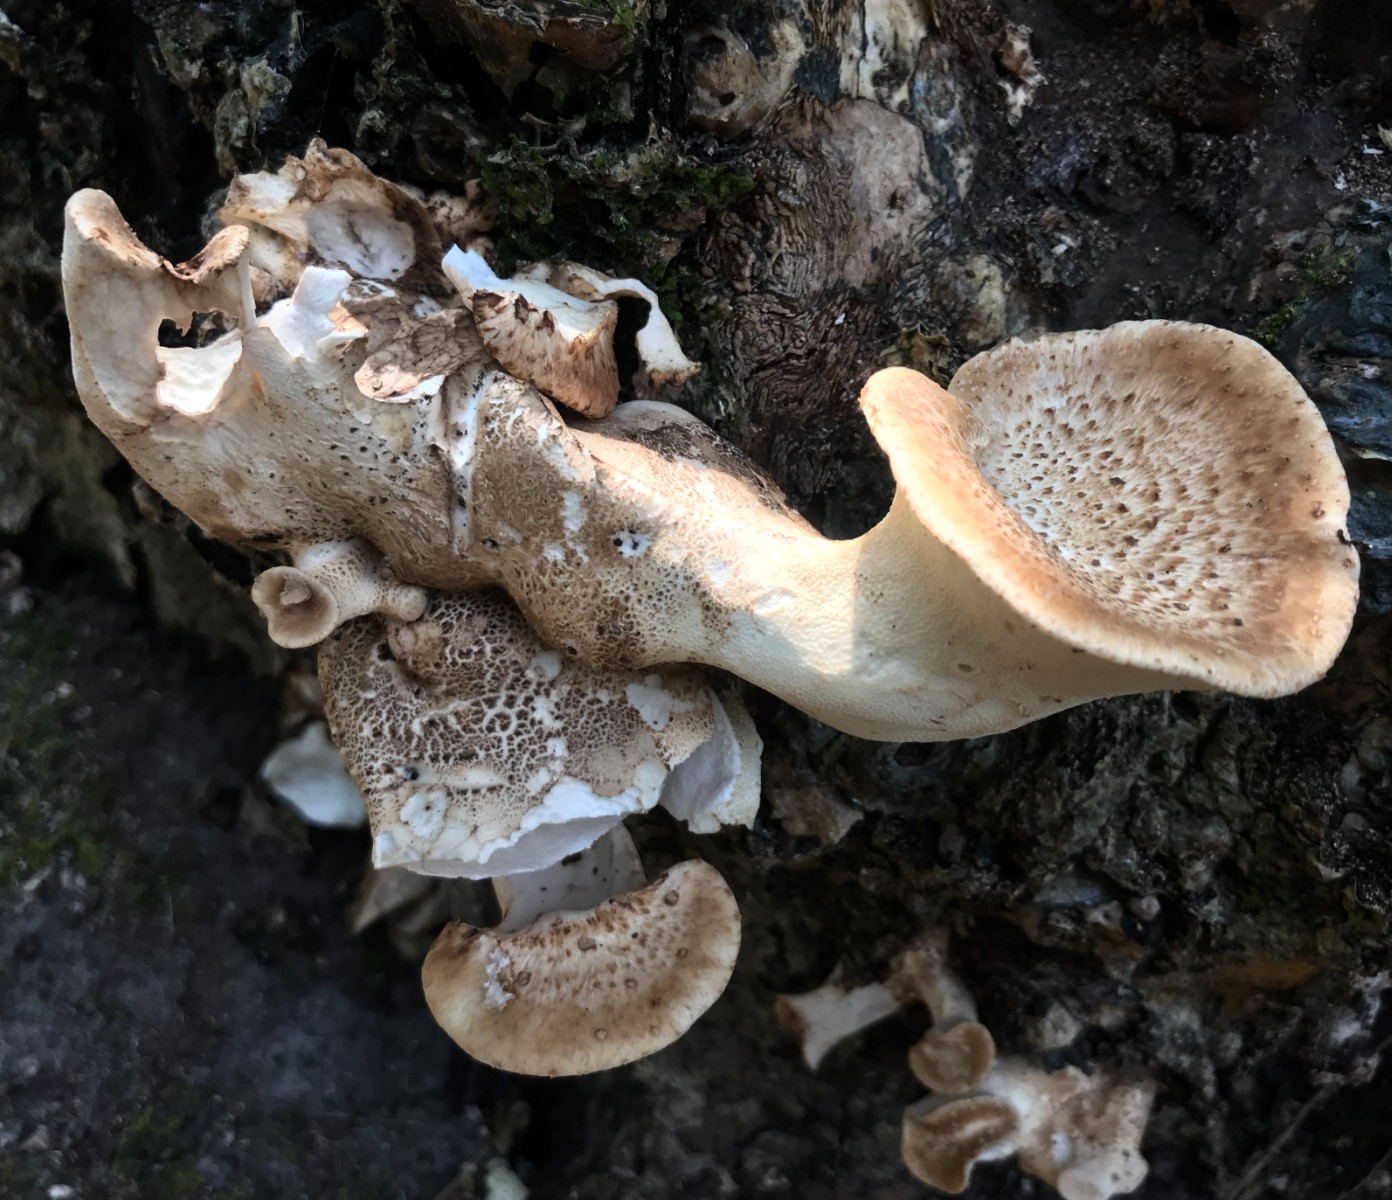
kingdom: Fungi
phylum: Basidiomycota
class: Agaricomycetes
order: Polyporales
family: Polyporaceae
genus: Cerioporus
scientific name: Cerioporus squamosus
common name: skællet stilkporesvamp
